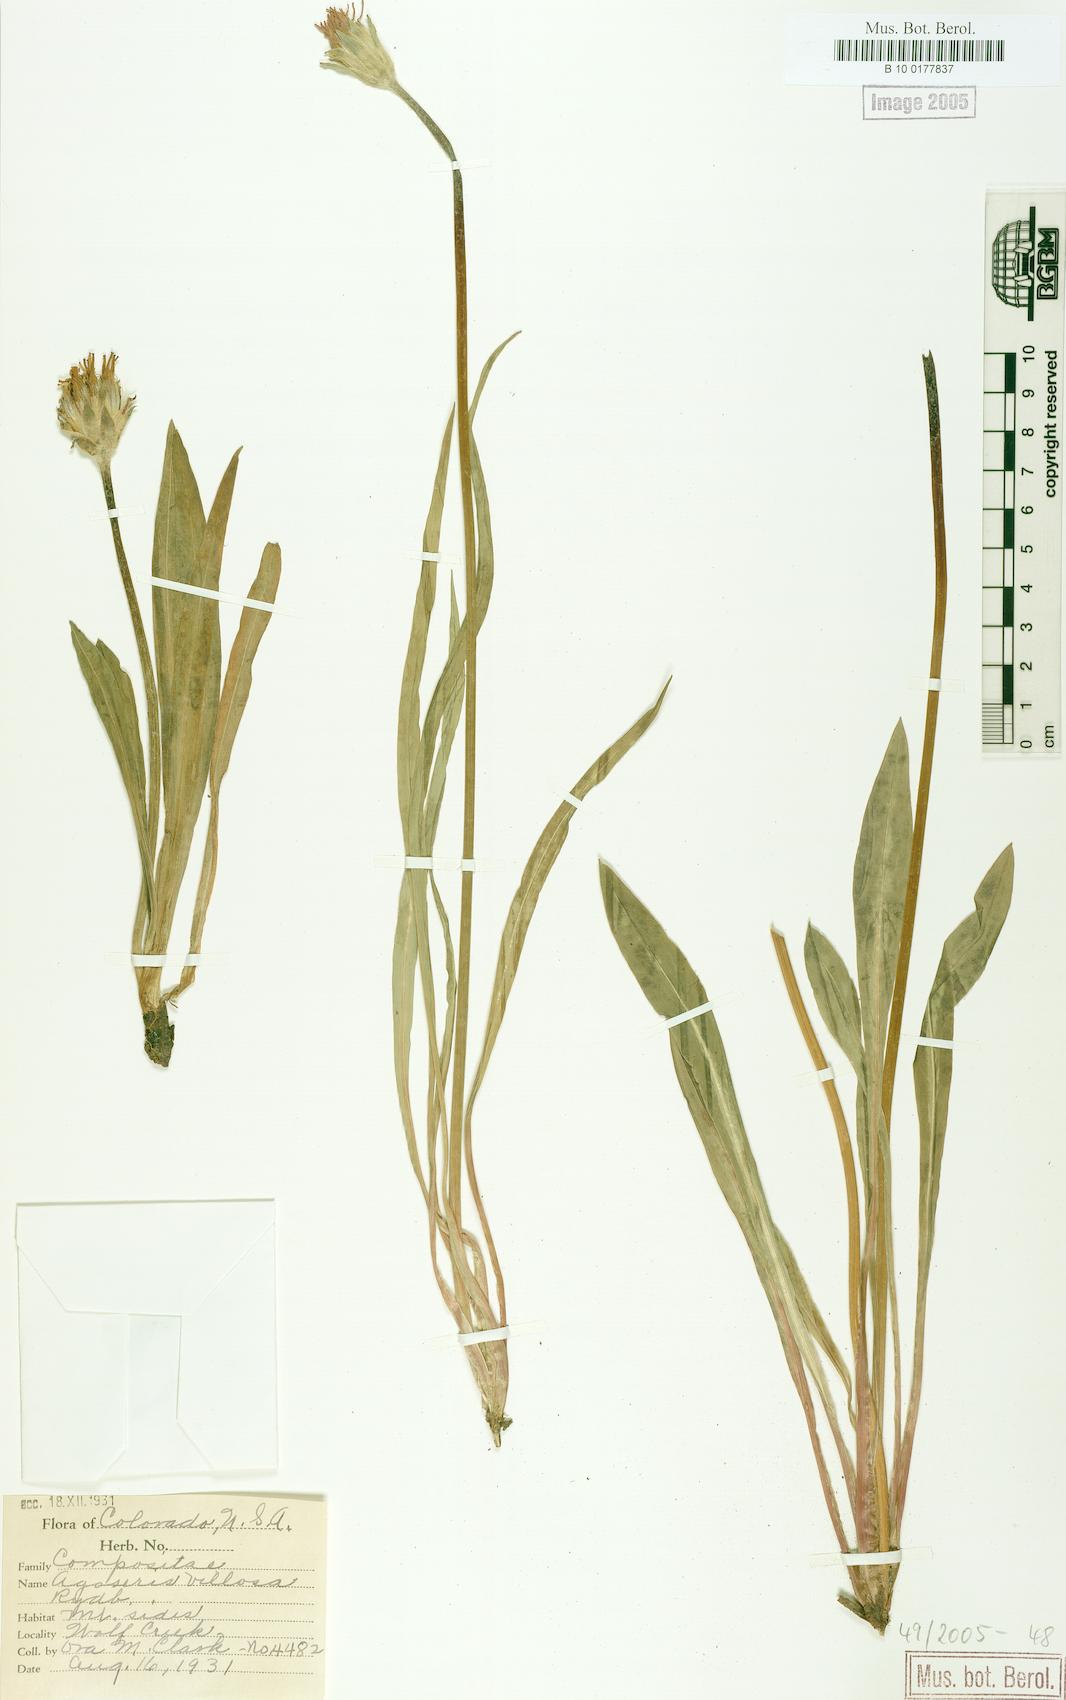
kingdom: Plantae
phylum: Tracheophyta
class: Magnoliopsida
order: Asterales
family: Asteraceae
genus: Agoseris
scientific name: Agoseris glauca
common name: Prairie agoseris
